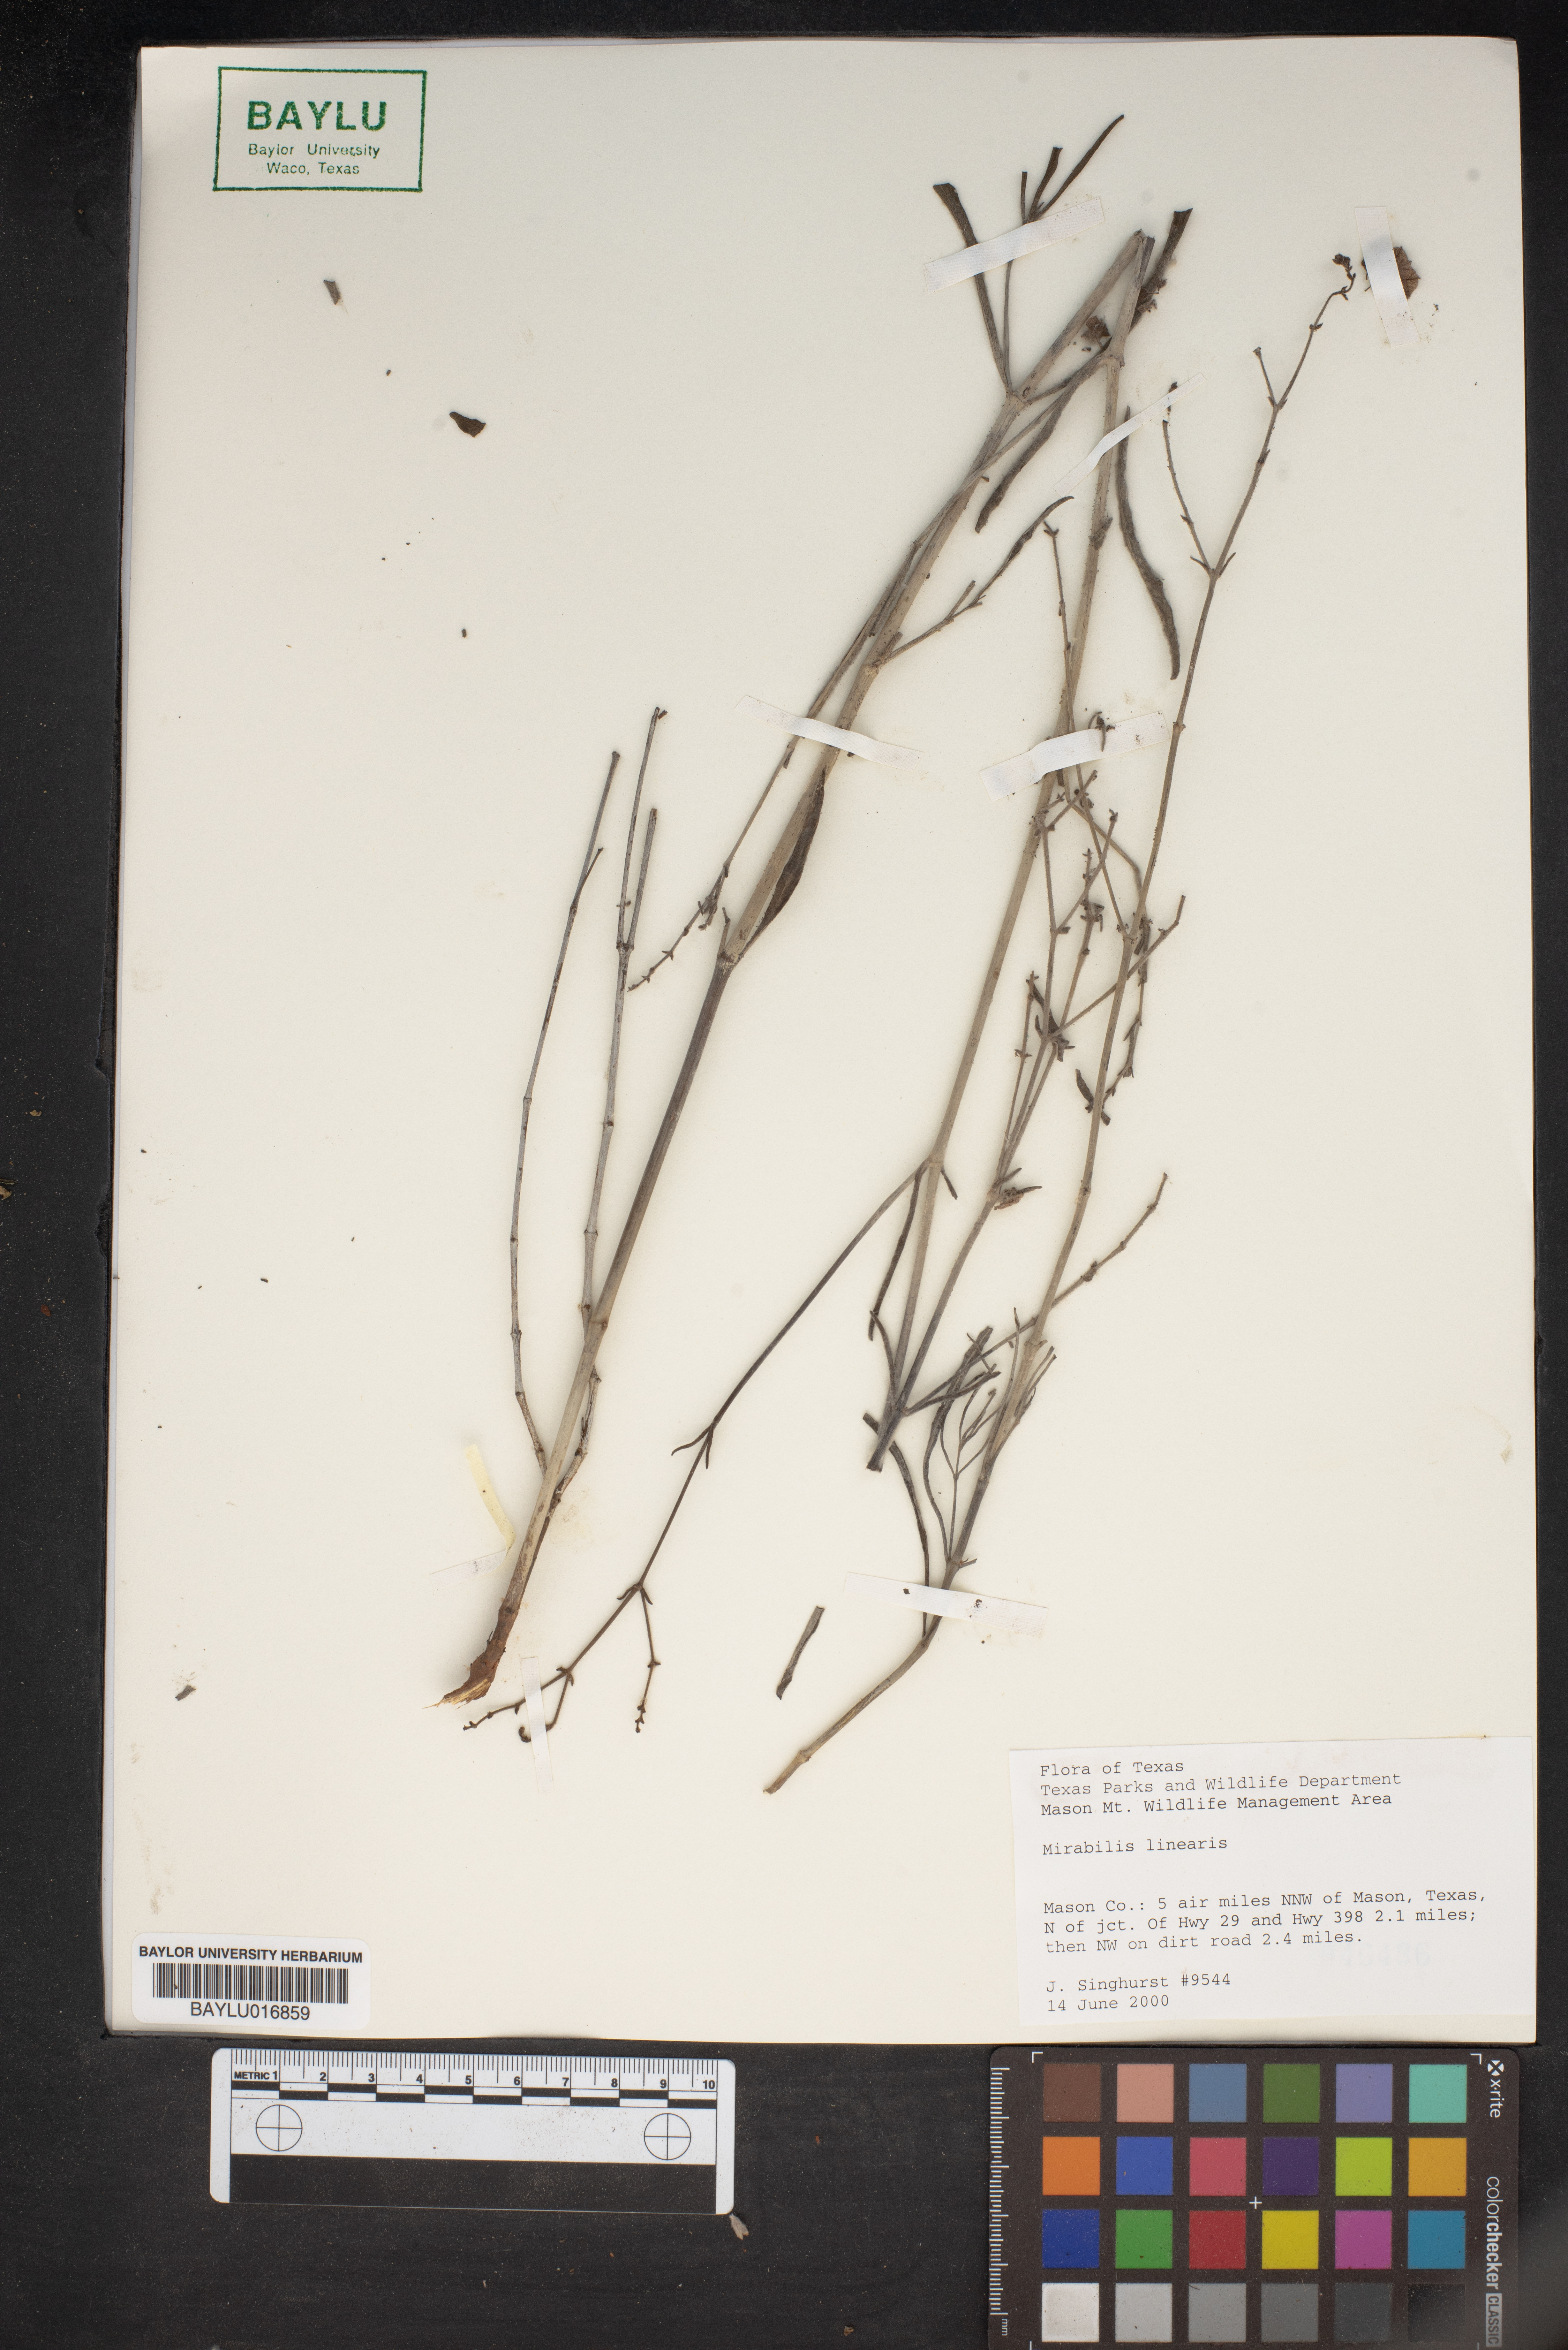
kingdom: Plantae
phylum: Tracheophyta
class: Magnoliopsida
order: Caryophyllales
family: Nyctaginaceae
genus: Mirabilis
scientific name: Mirabilis linearis
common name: Linear-leaved four-o'clock
